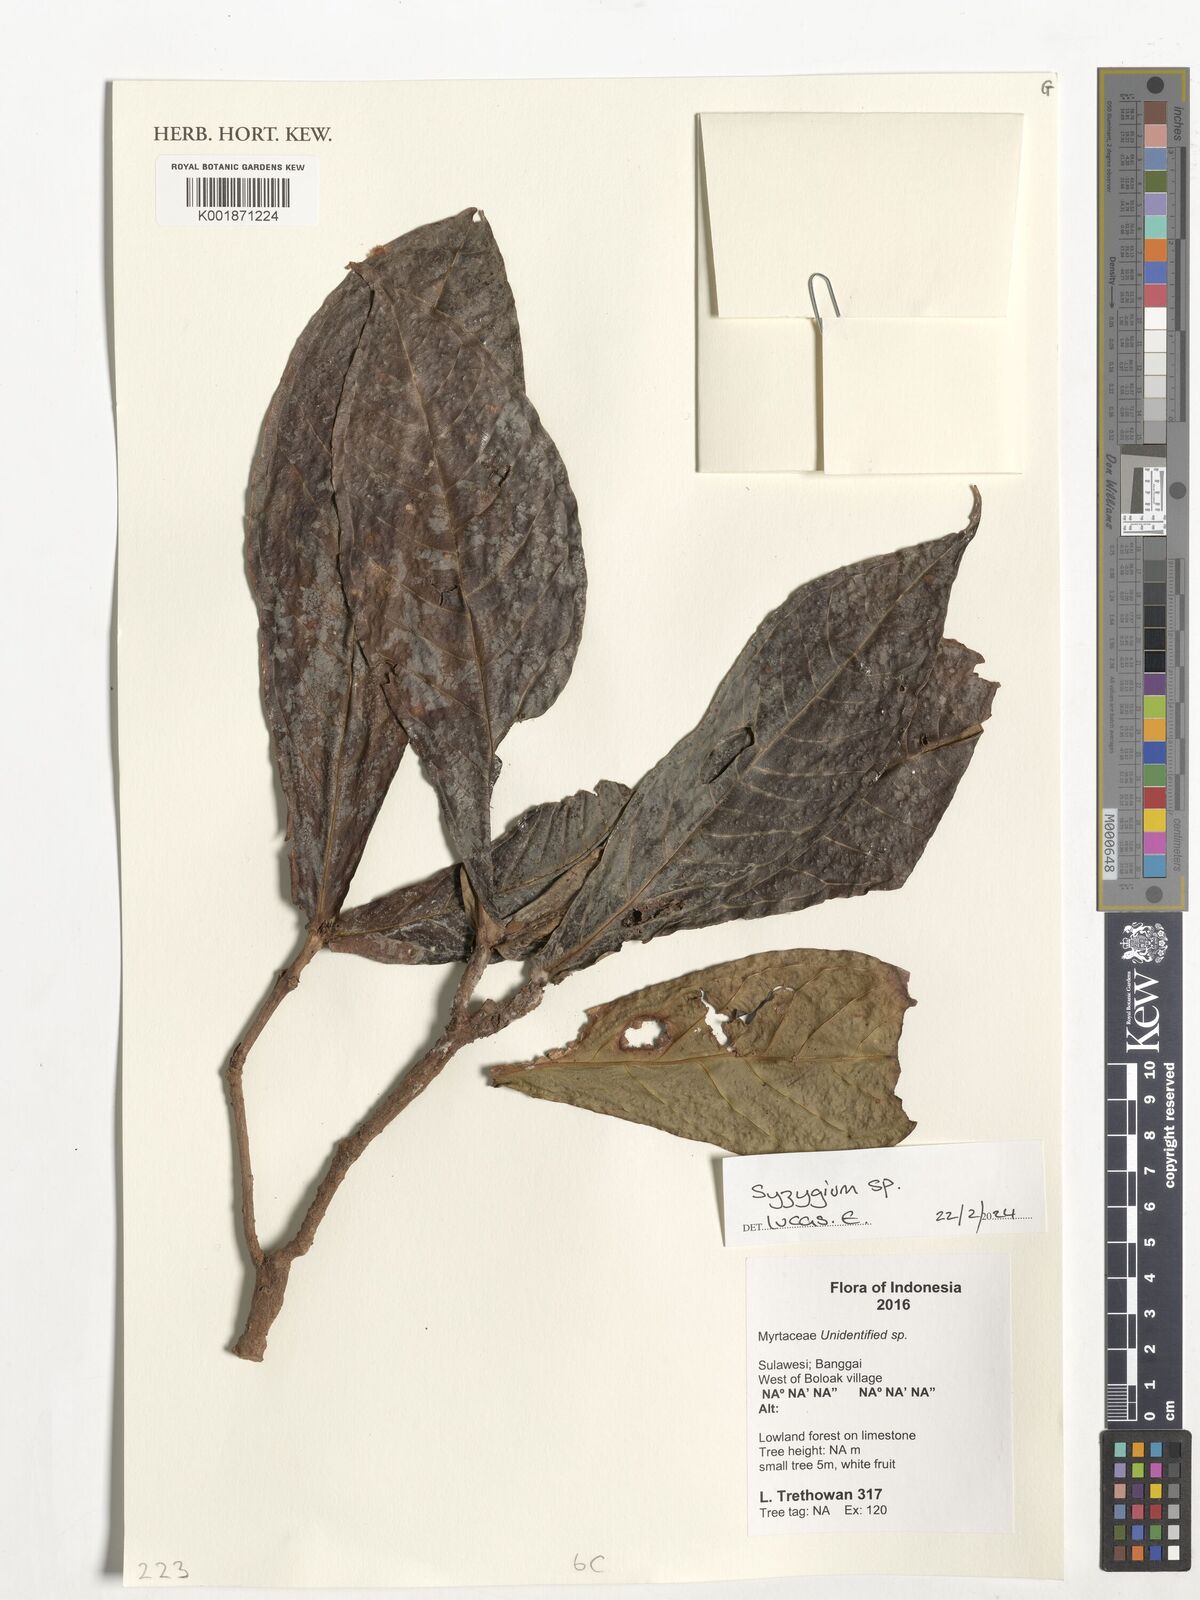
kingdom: Plantae
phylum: Tracheophyta
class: Magnoliopsida
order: Myrtales
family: Myrtaceae
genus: Syzygium
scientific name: Syzygium
